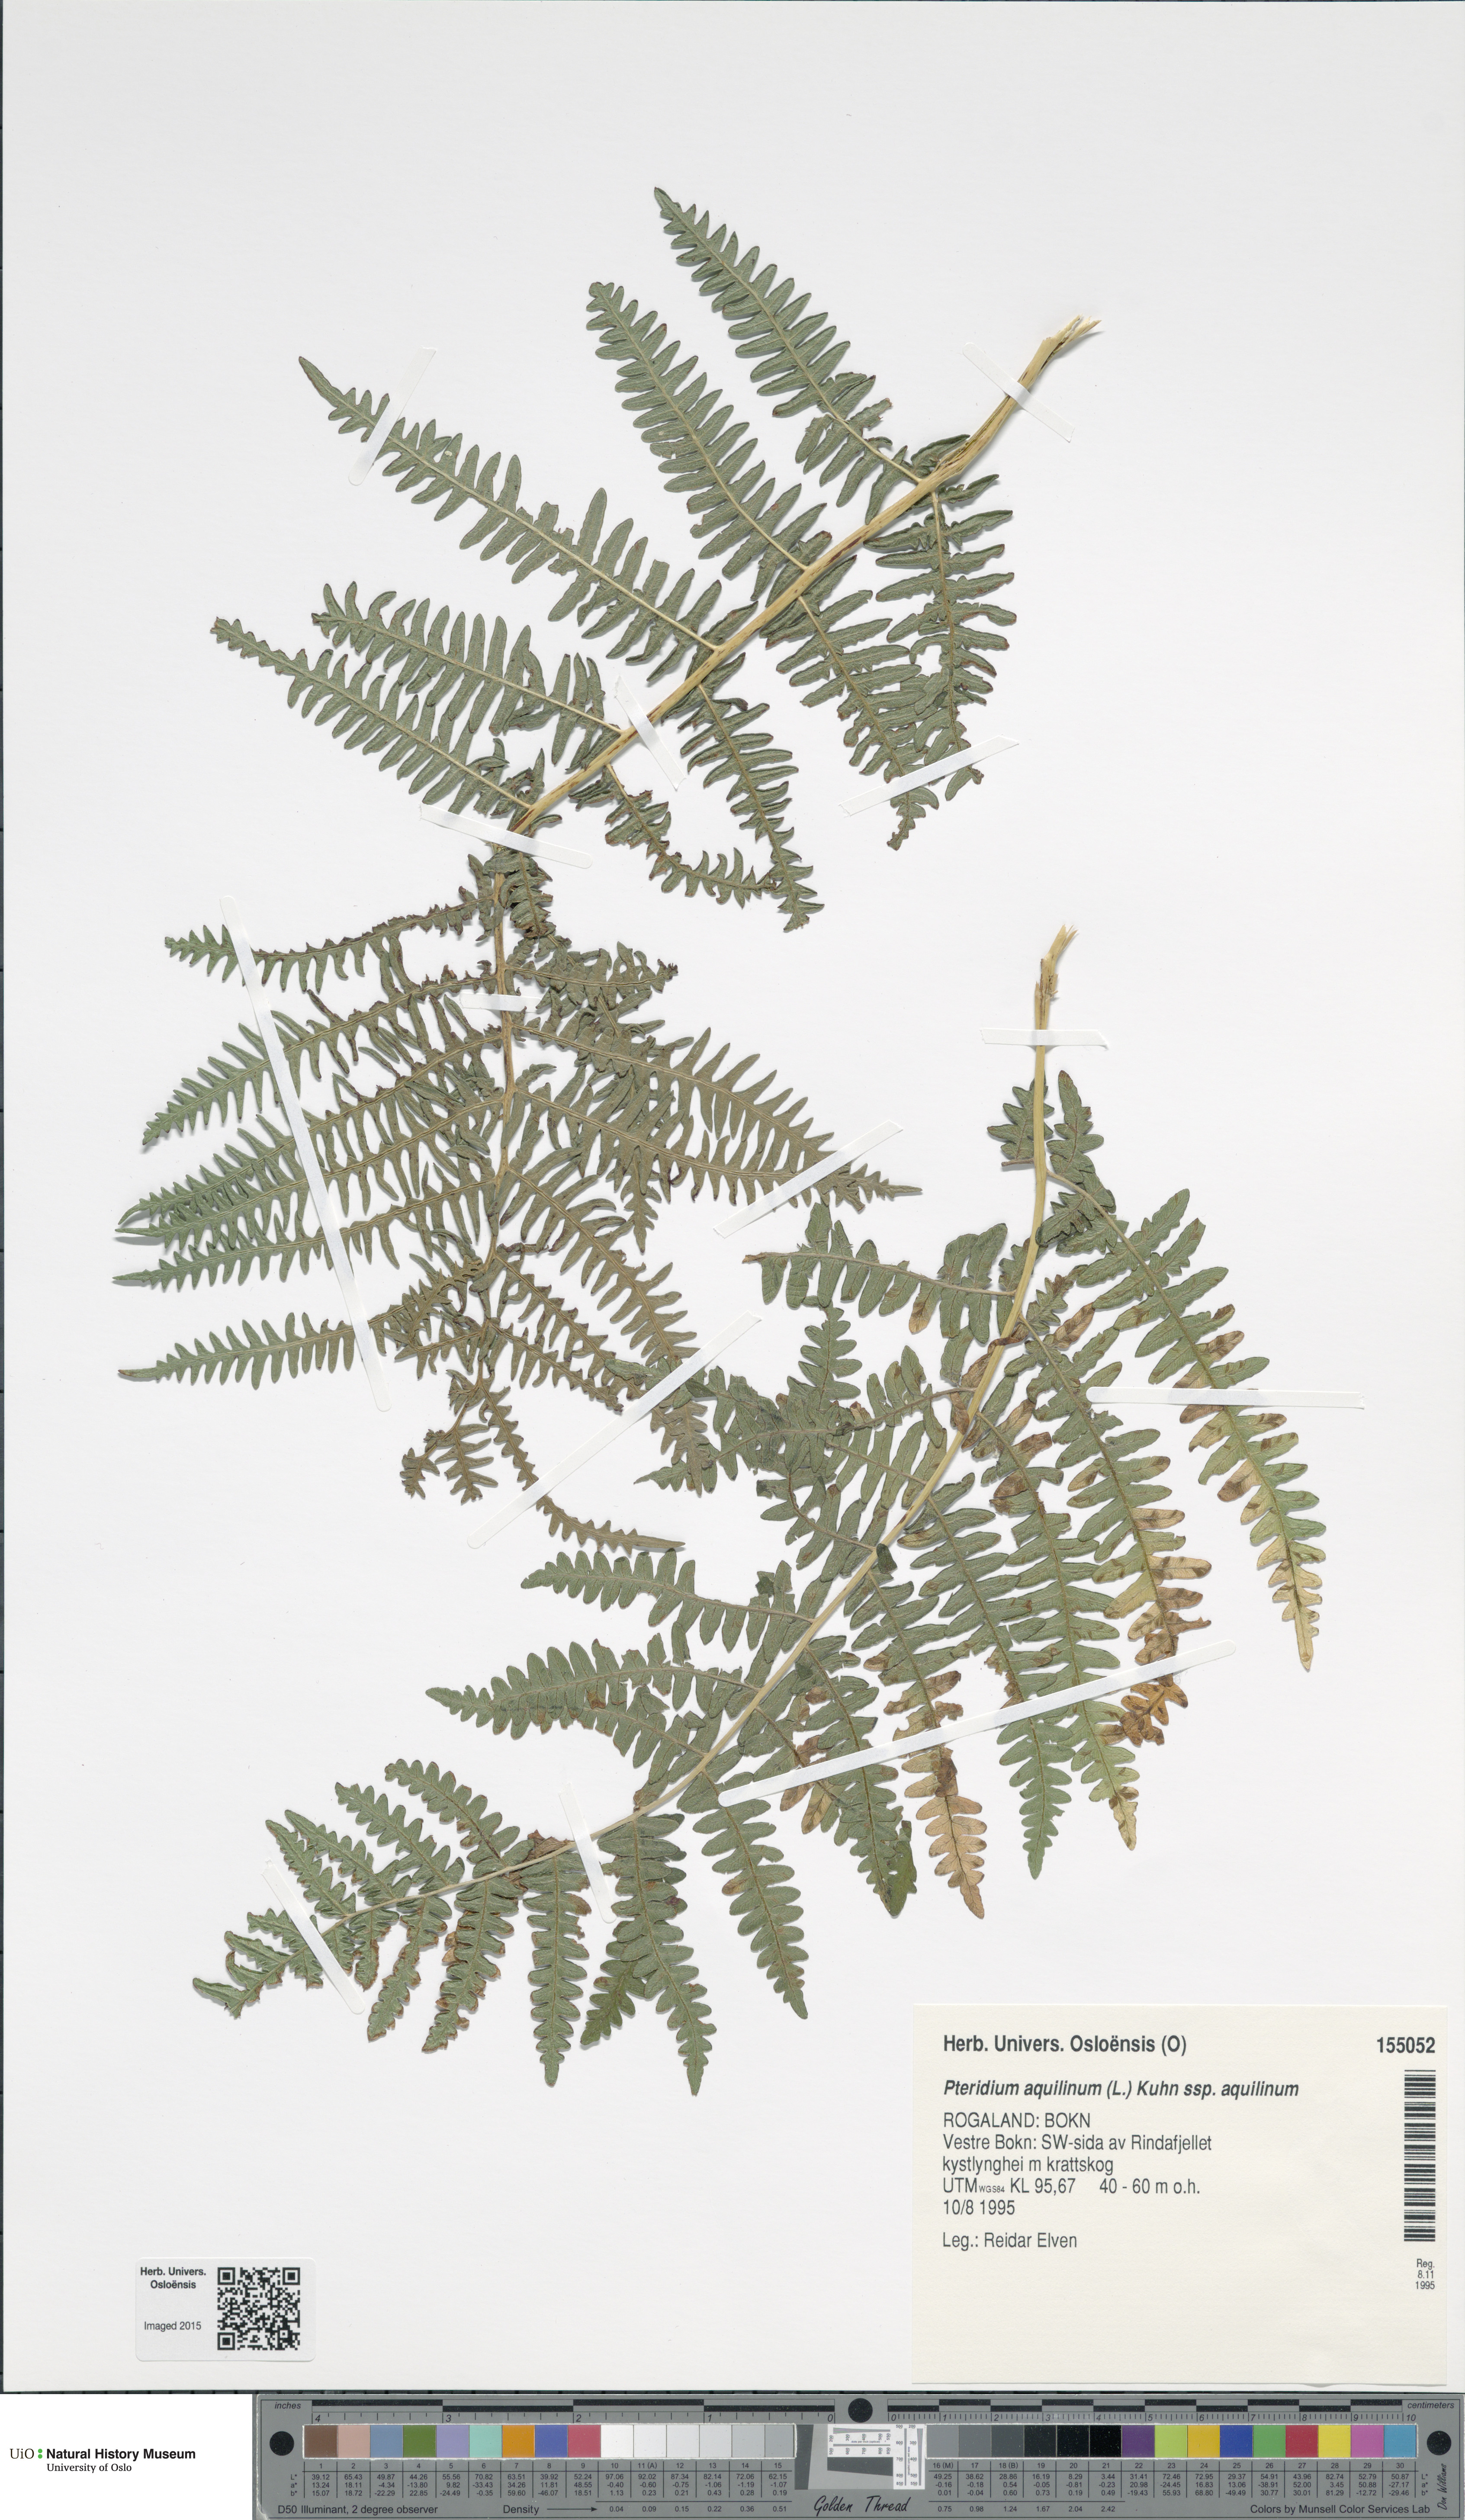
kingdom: Plantae
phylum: Tracheophyta
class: Polypodiopsida
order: Polypodiales
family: Dennstaedtiaceae
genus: Pteridium
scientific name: Pteridium aquilinum
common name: Bracken
